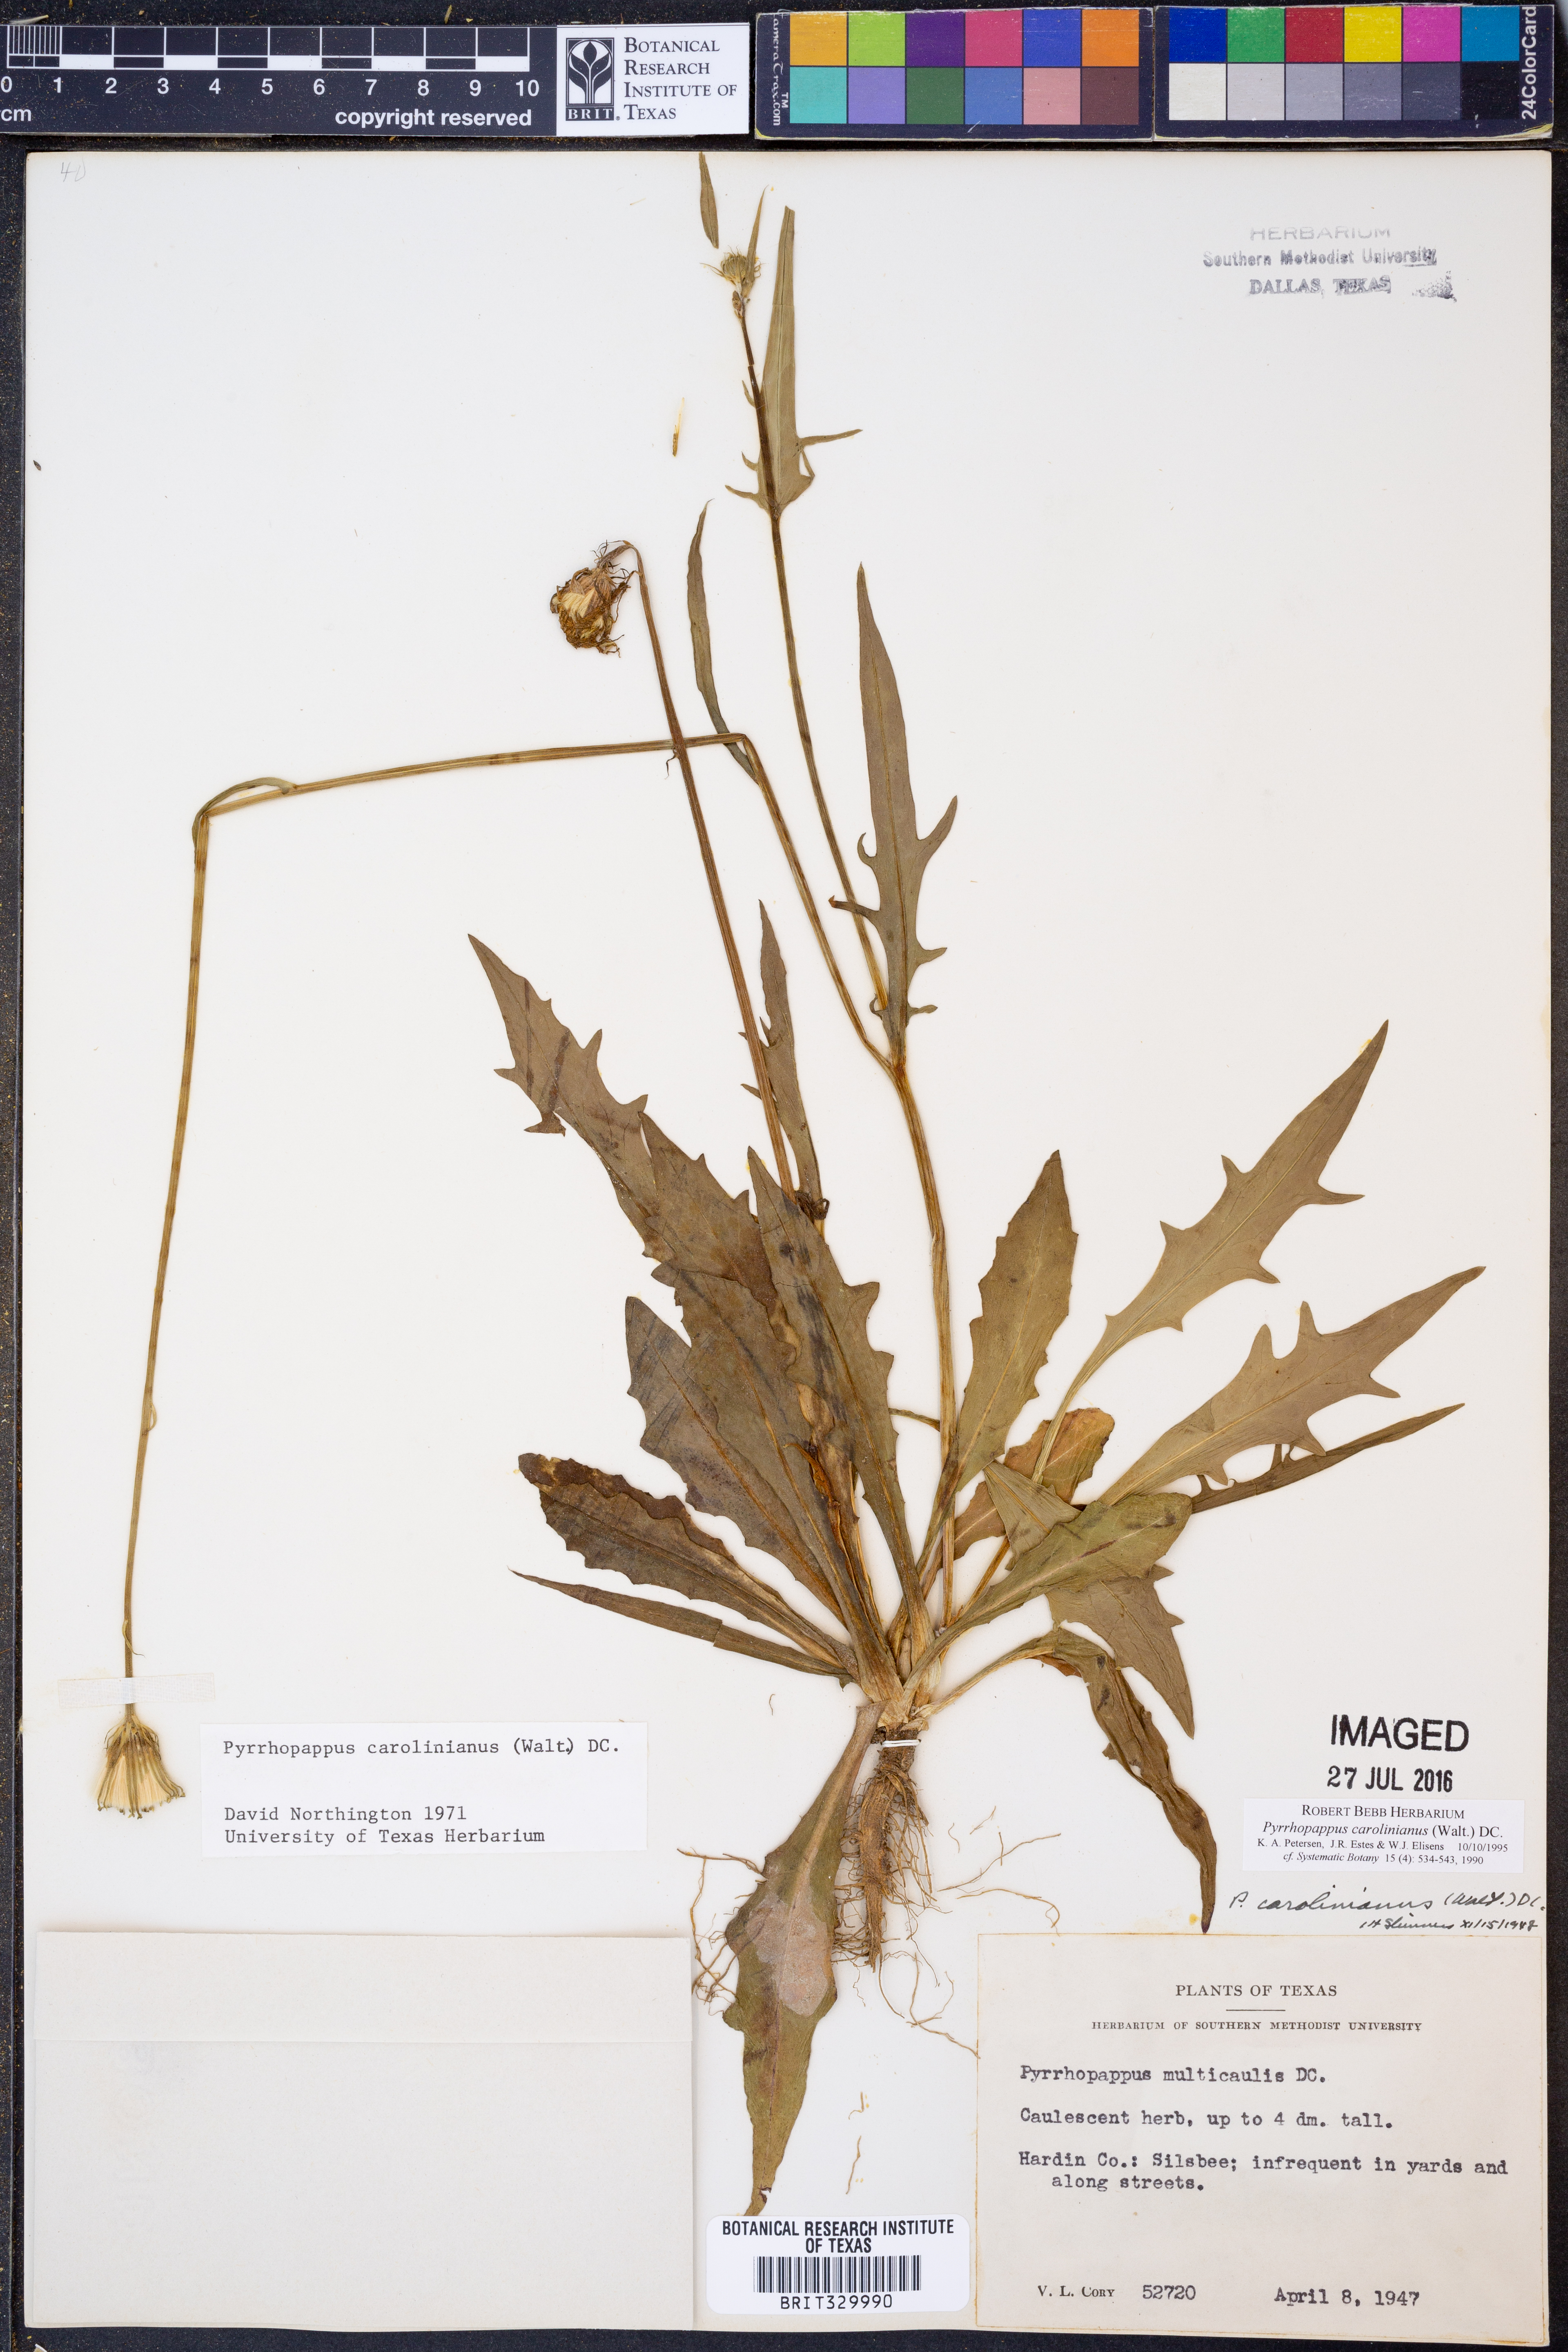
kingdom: Plantae
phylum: Tracheophyta
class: Magnoliopsida
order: Asterales
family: Asteraceae
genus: Pyrrhopappus
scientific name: Pyrrhopappus carolinianus
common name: Carolina desert-chicory
